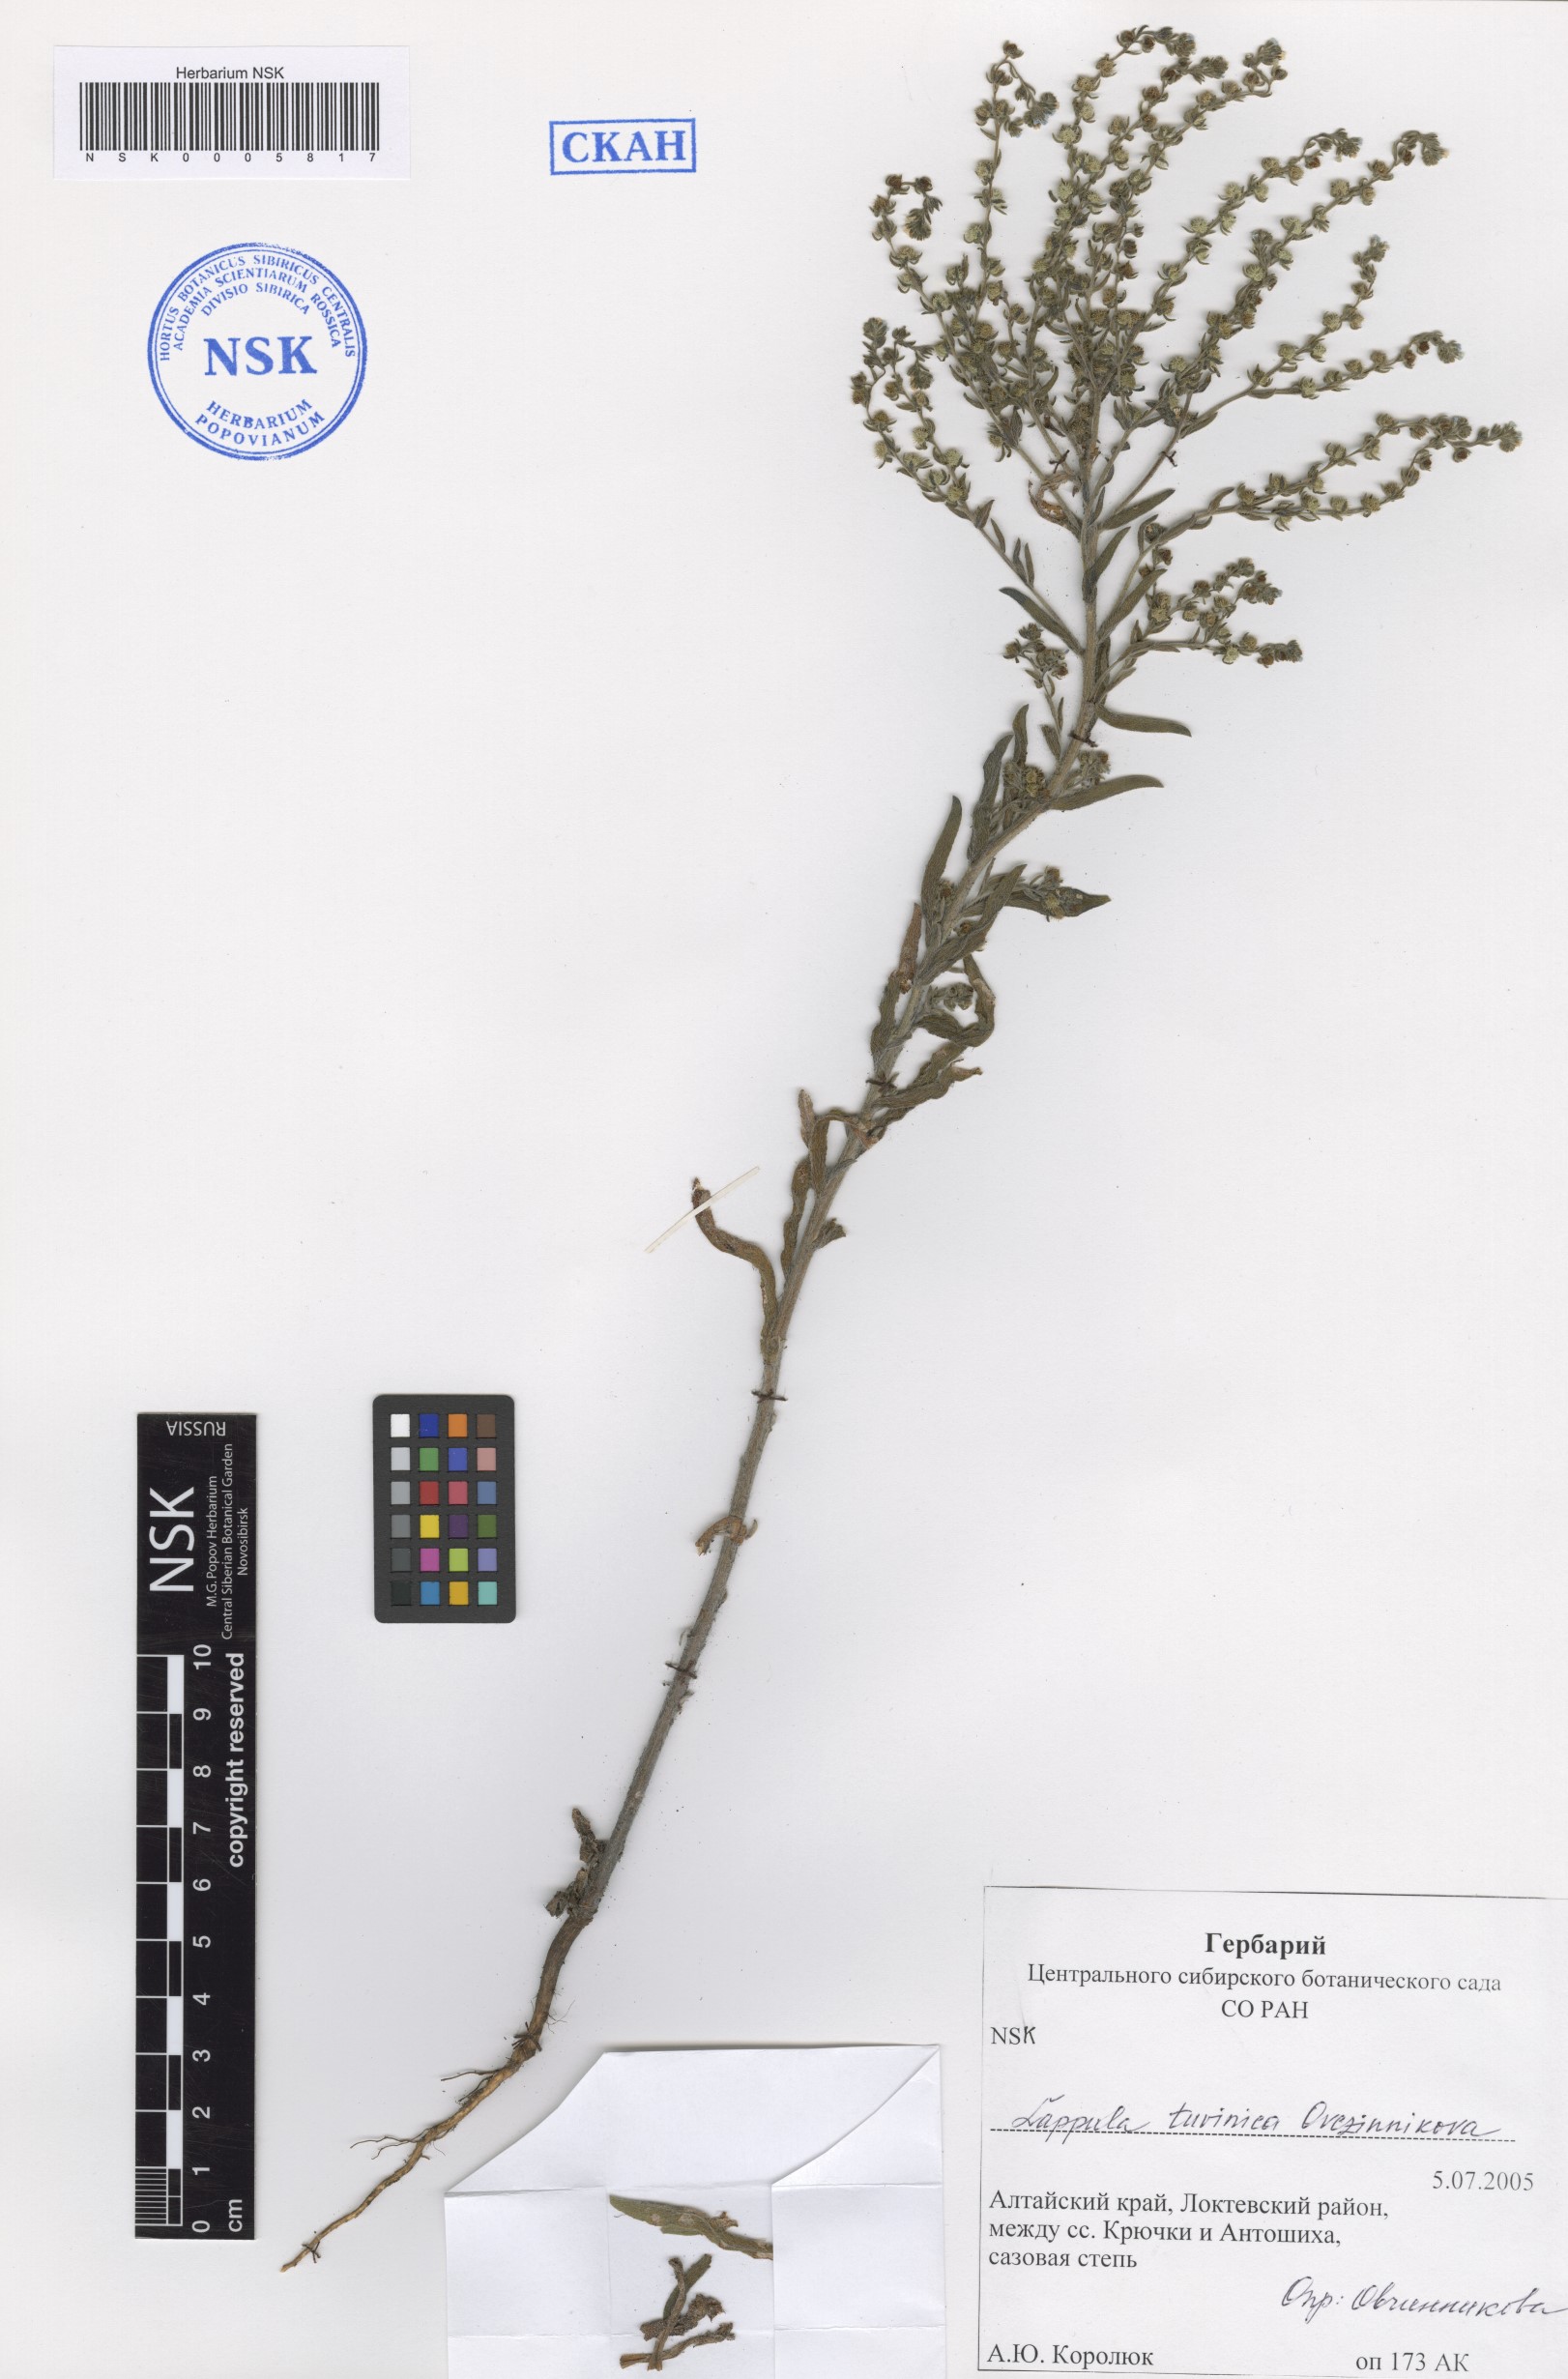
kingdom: Plantae
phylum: Tracheophyta
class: Magnoliopsida
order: Boraginales
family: Boraginaceae
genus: Lappula
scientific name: Lappula tuvinica
